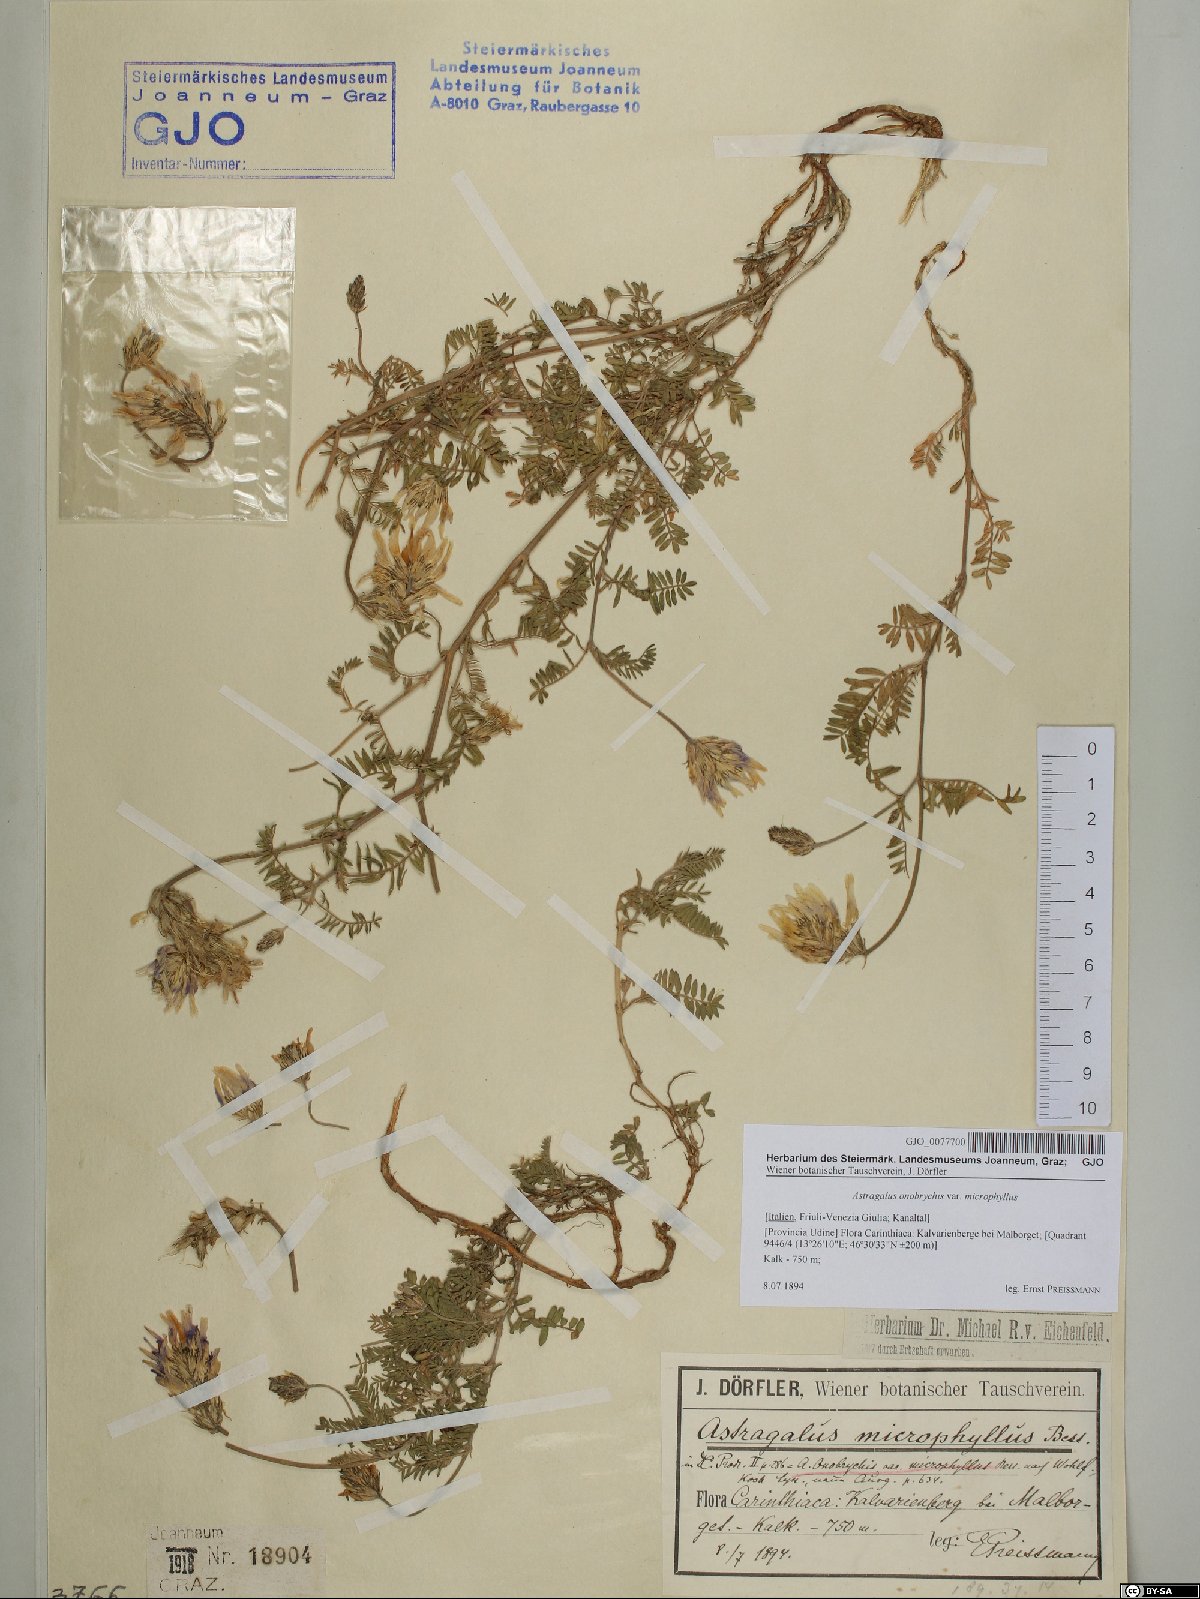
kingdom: Plantae
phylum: Tracheophyta
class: Magnoliopsida
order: Fabales
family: Fabaceae
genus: Astragalus
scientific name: Astragalus onobrychis
